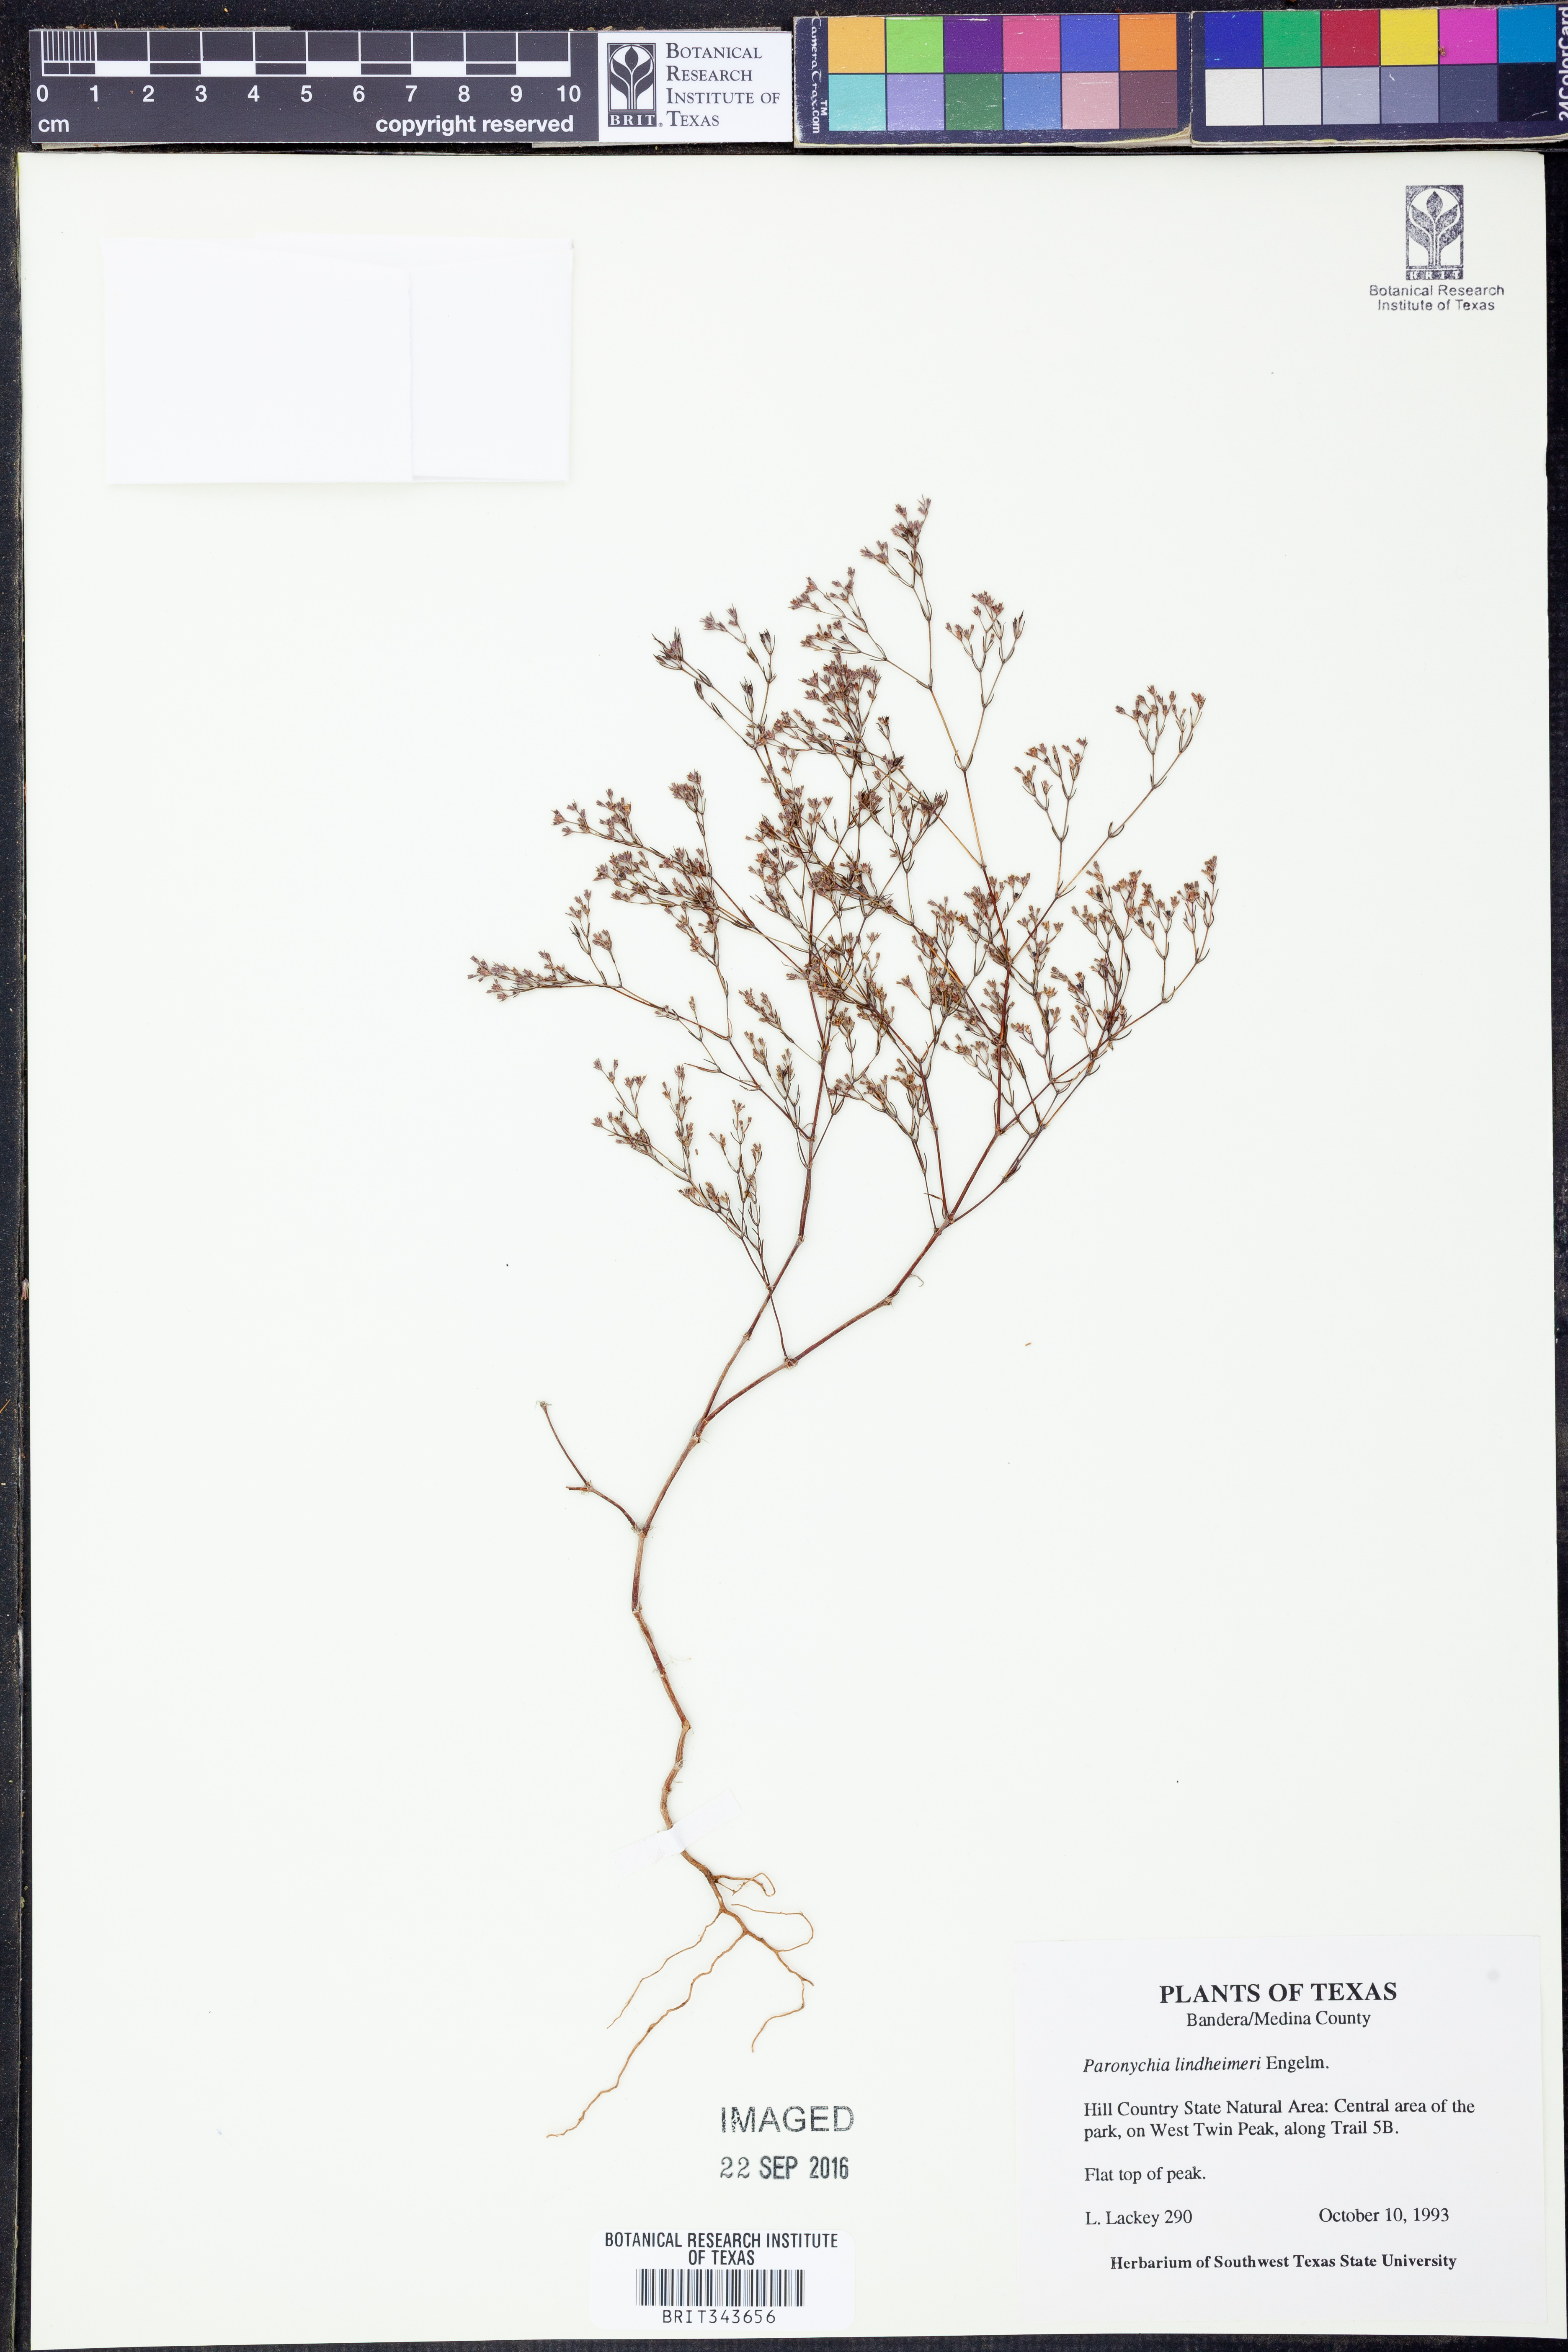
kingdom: Plantae
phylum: Tracheophyta
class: Magnoliopsida
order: Caryophyllales
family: Caryophyllaceae
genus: Paronychia
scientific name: Paronychia lindheimeri
